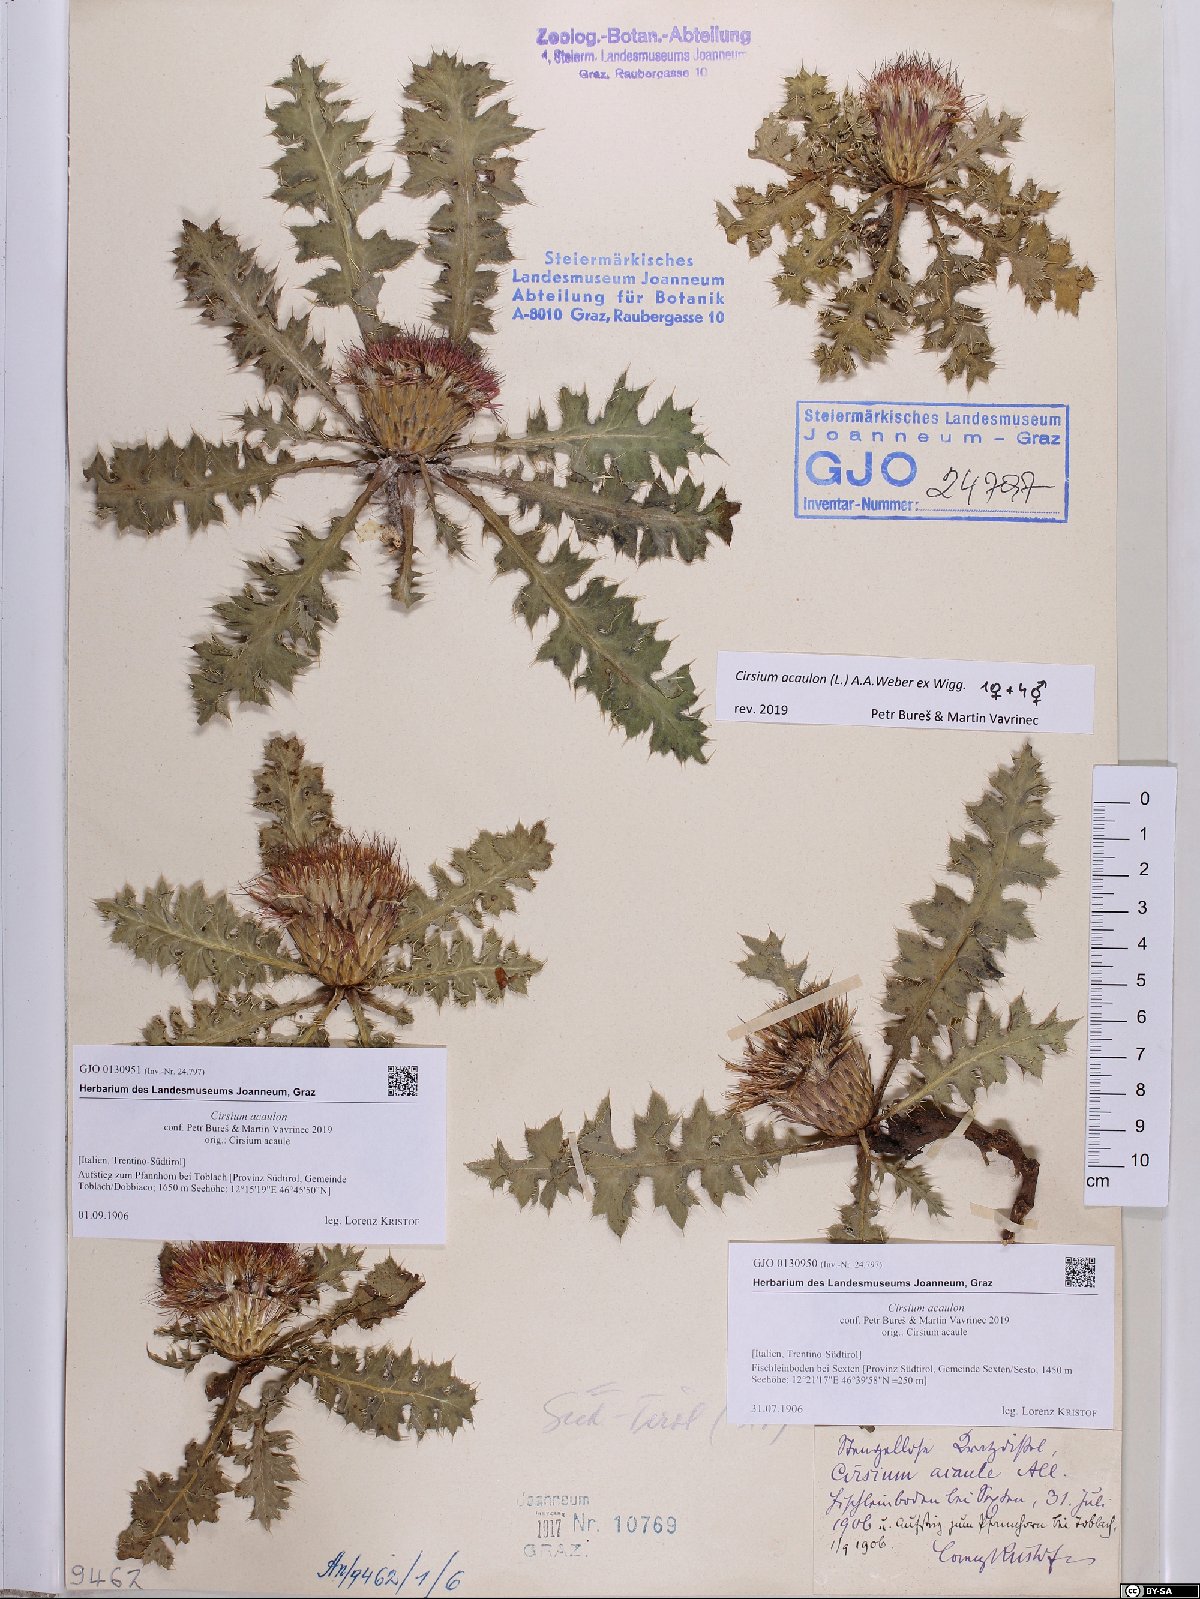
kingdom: Plantae
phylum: Tracheophyta
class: Magnoliopsida
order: Asterales
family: Asteraceae
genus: Cirsium
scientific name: Cirsium acaulon
